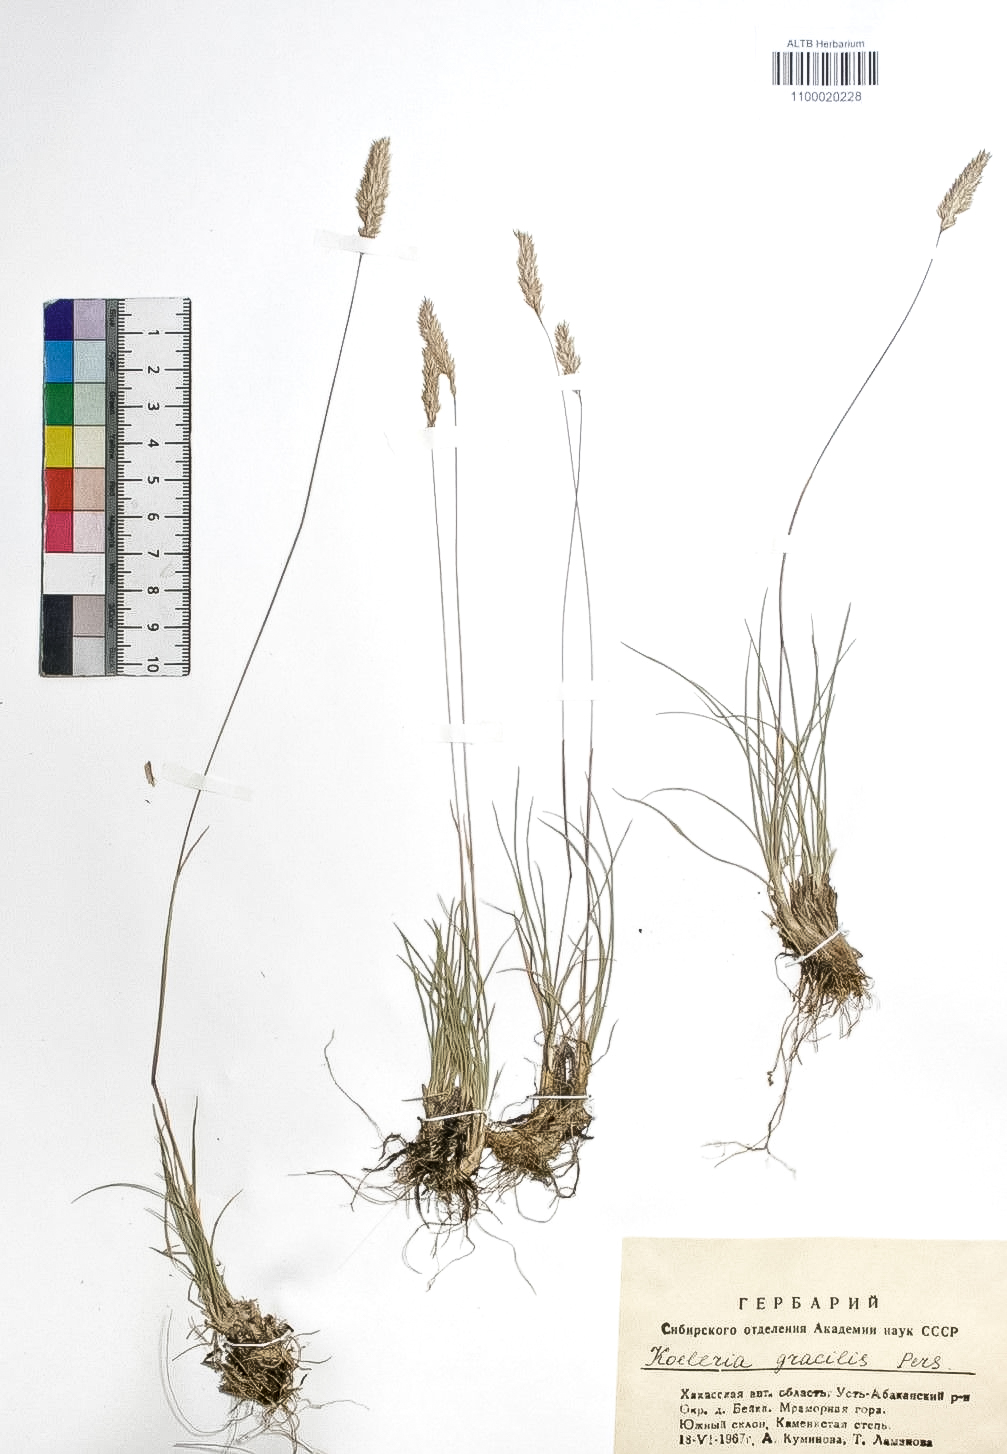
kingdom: Plantae
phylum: Tracheophyta
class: Liliopsida
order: Poales
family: Poaceae
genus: Koeleria
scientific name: Koeleria macrantha
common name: Crested hair-grass
